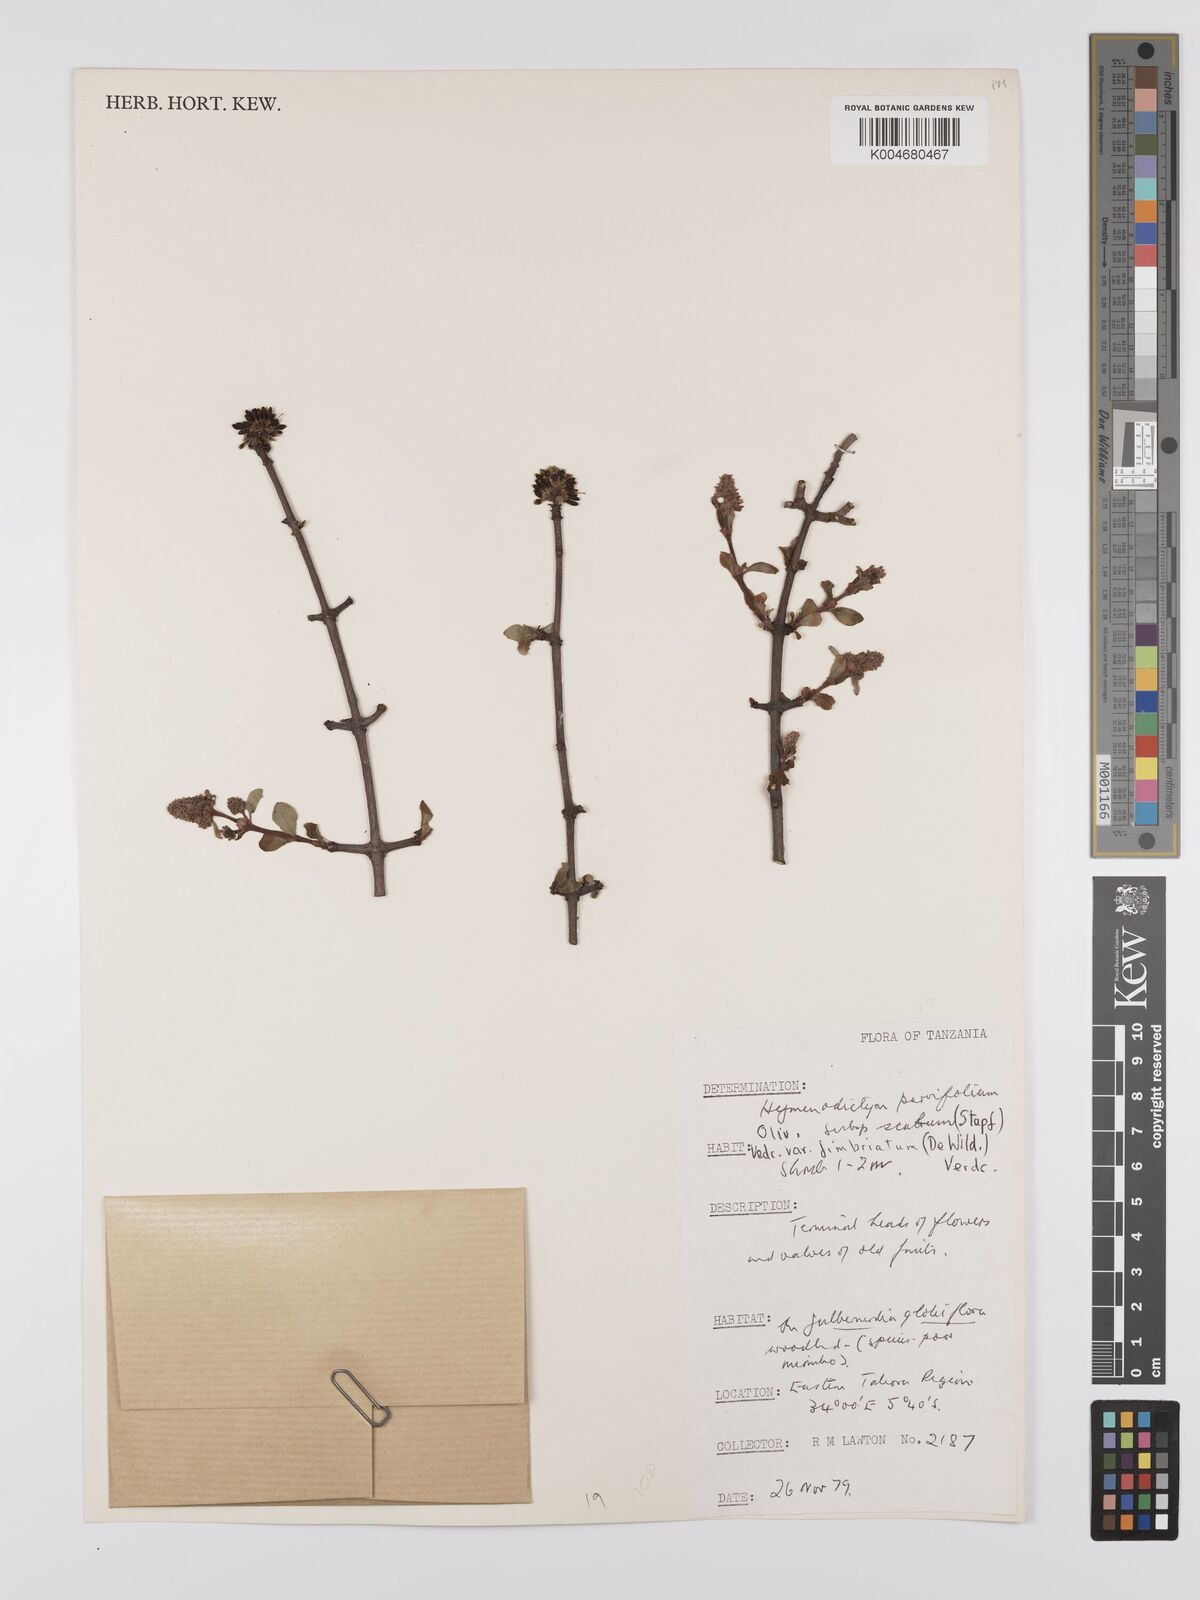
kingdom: Plantae
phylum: Tracheophyta
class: Magnoliopsida
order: Gentianales
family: Rubiaceae
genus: Hymenodictyon
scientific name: Hymenodictyon scabrum
